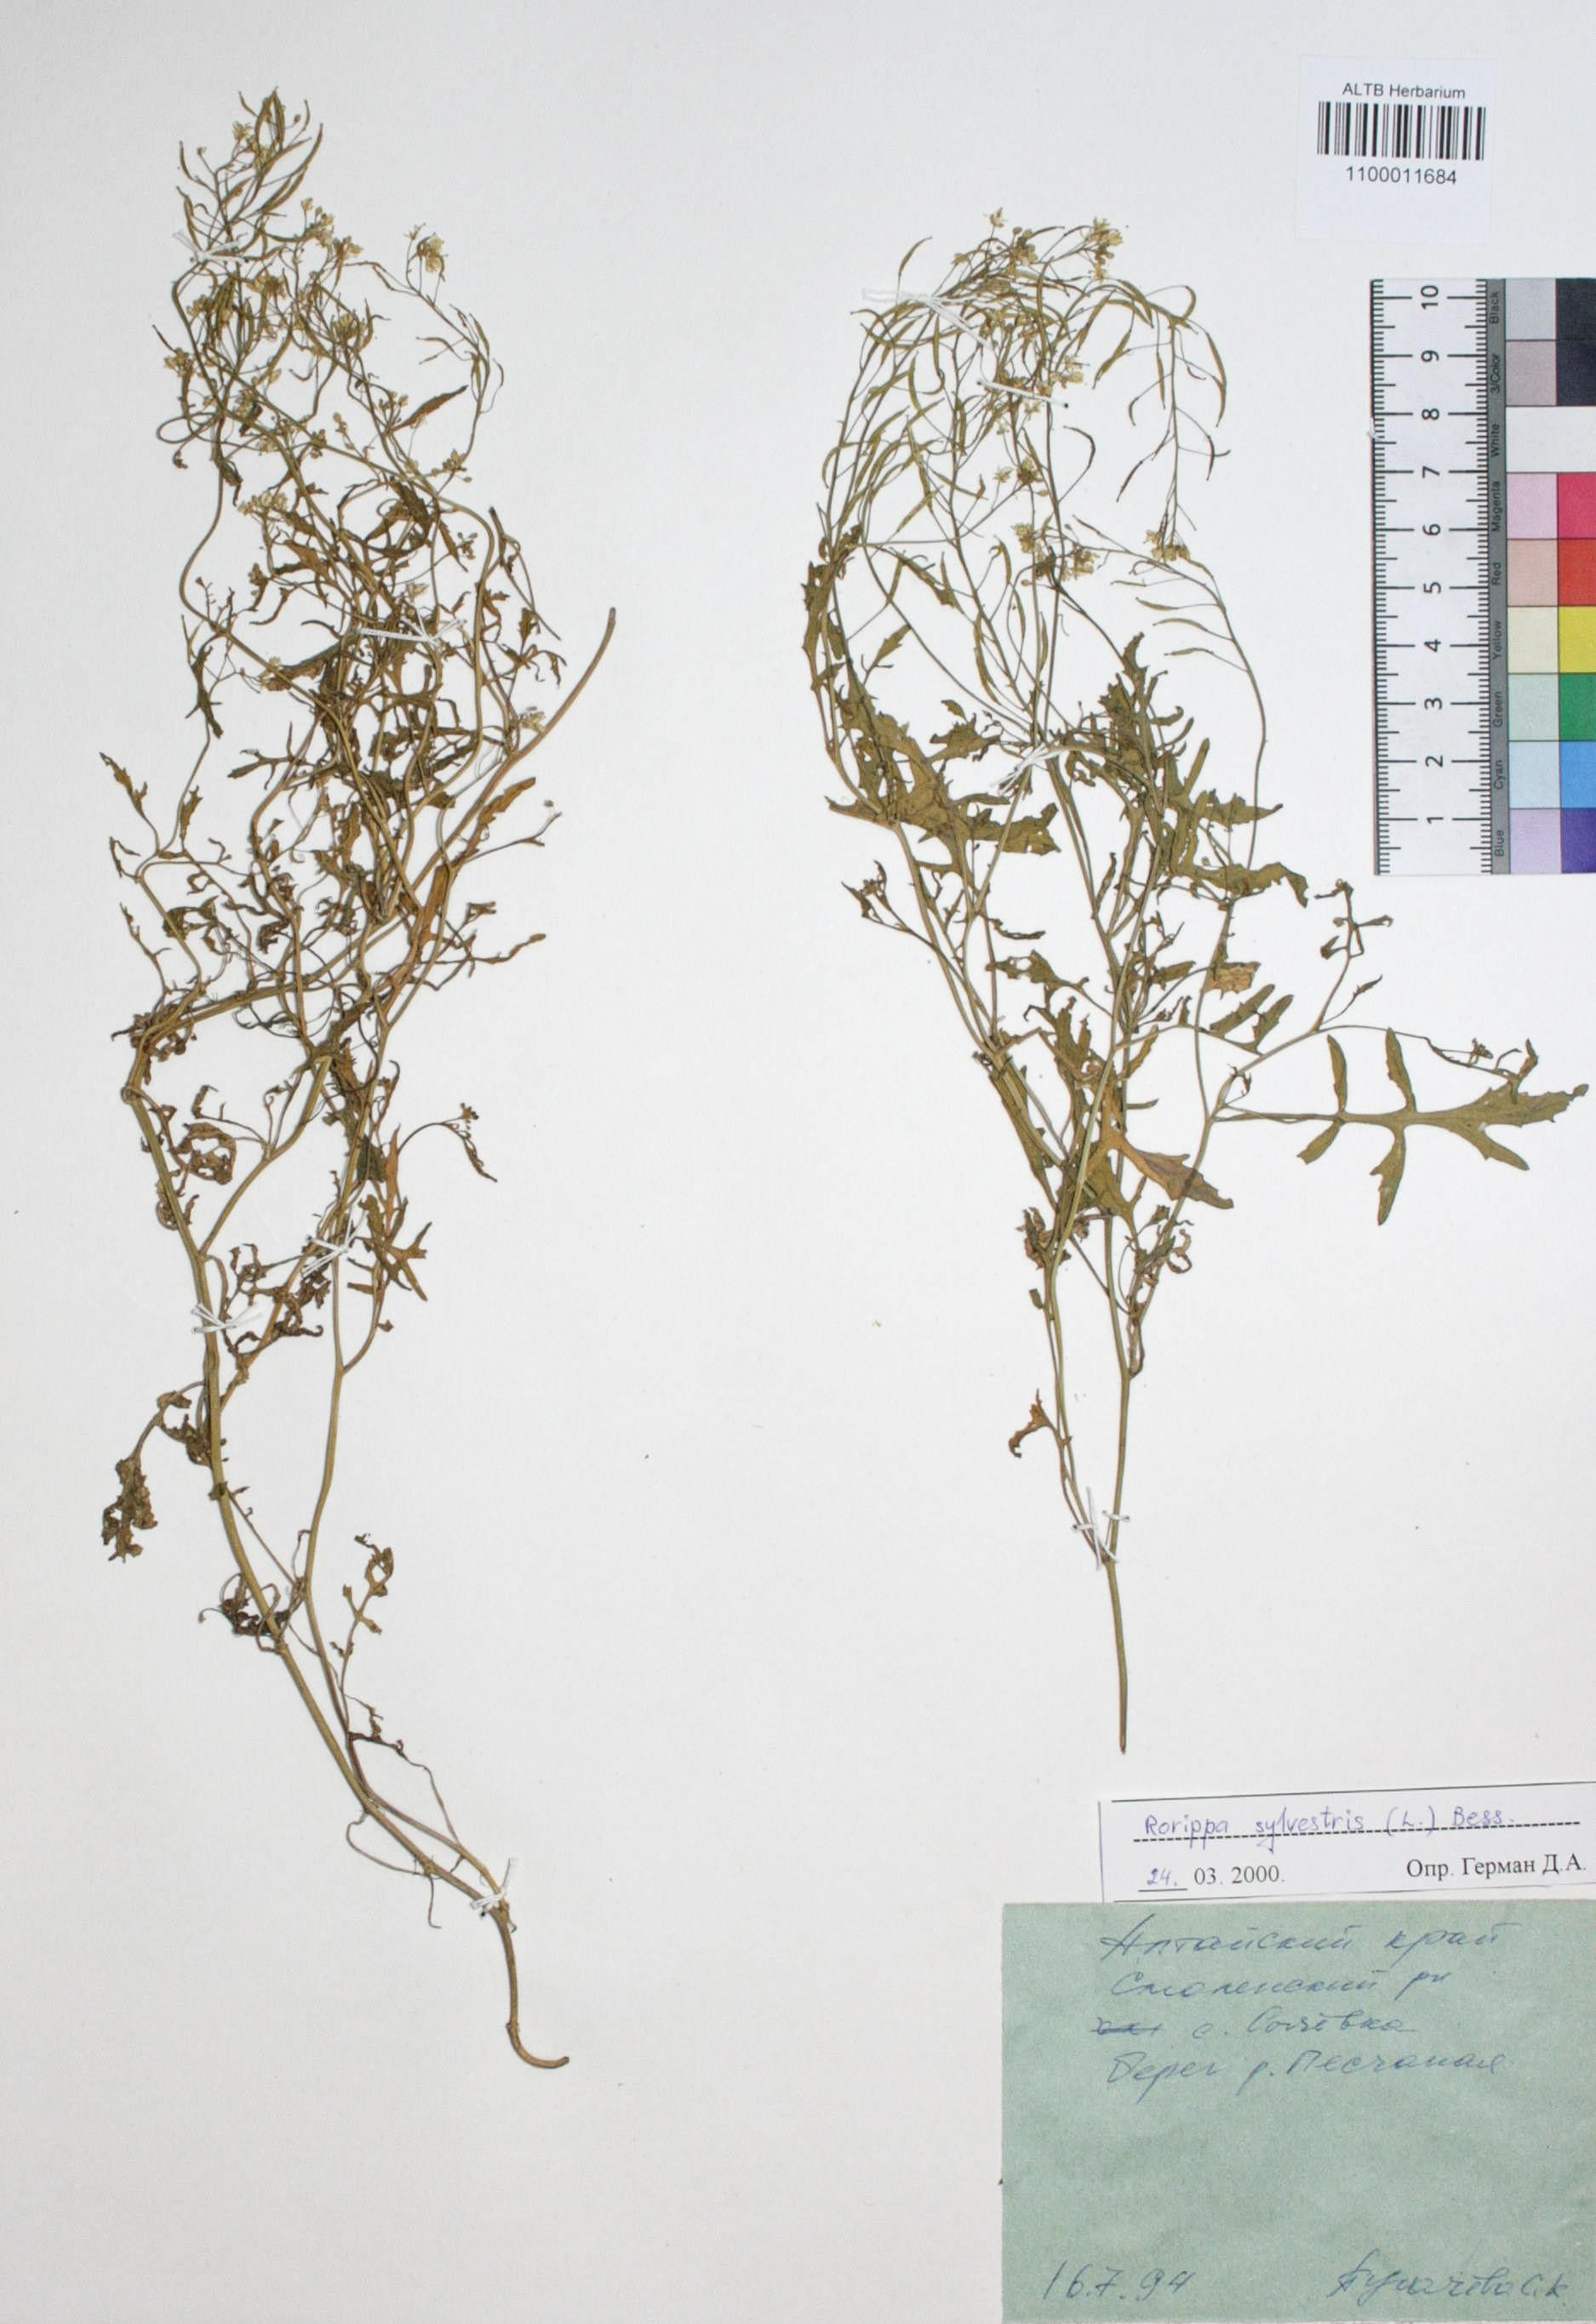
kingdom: Plantae
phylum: Tracheophyta
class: Magnoliopsida
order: Brassicales
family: Brassicaceae
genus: Rorippa
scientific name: Rorippa sylvestris
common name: Creeping yellowcress
